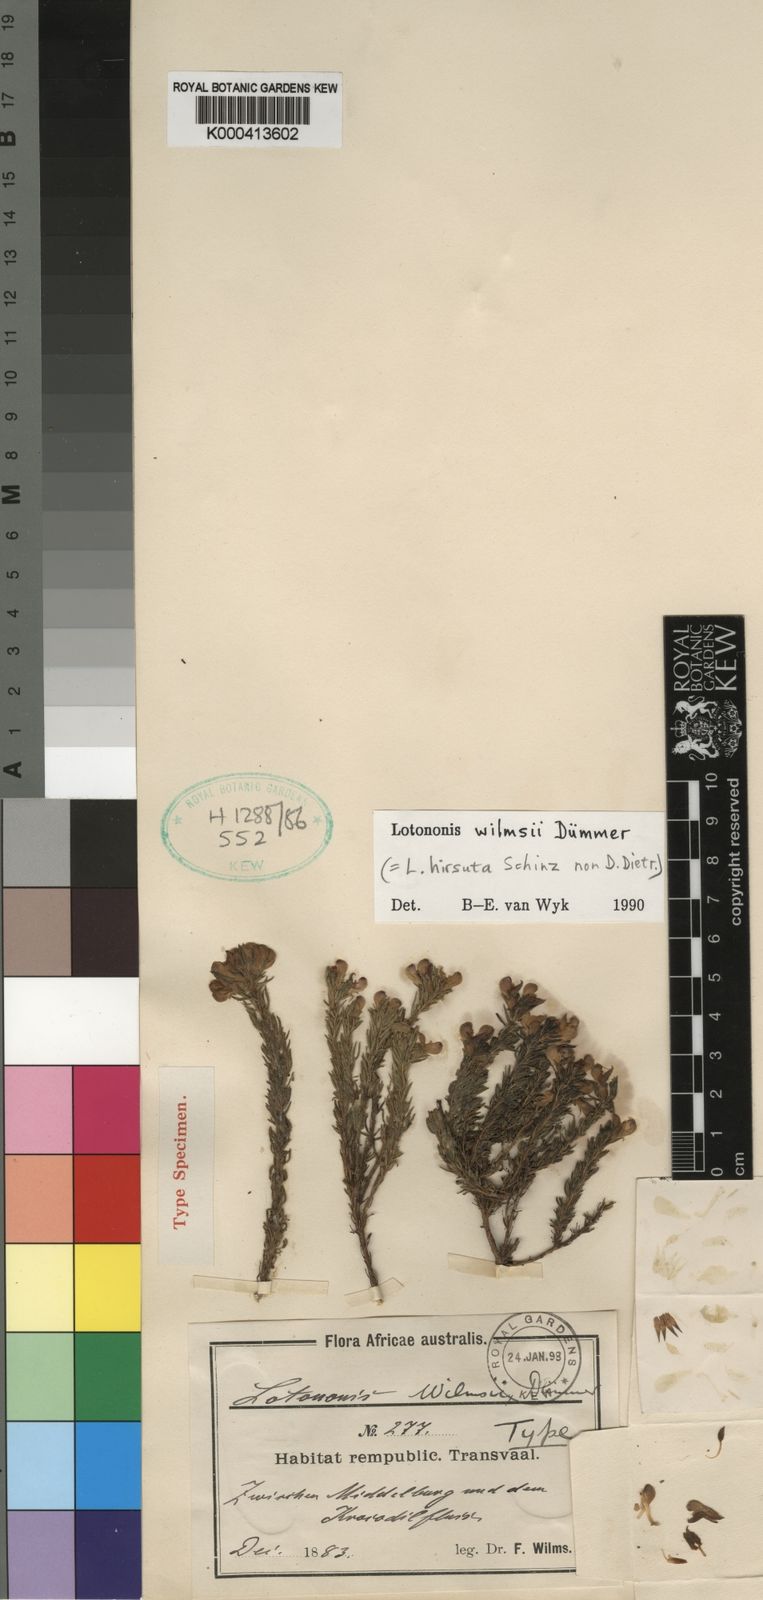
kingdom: Plantae
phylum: Tracheophyta
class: Magnoliopsida
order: Fabales
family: Fabaceae
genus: Lotononis
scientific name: Lotononis wilmsii
